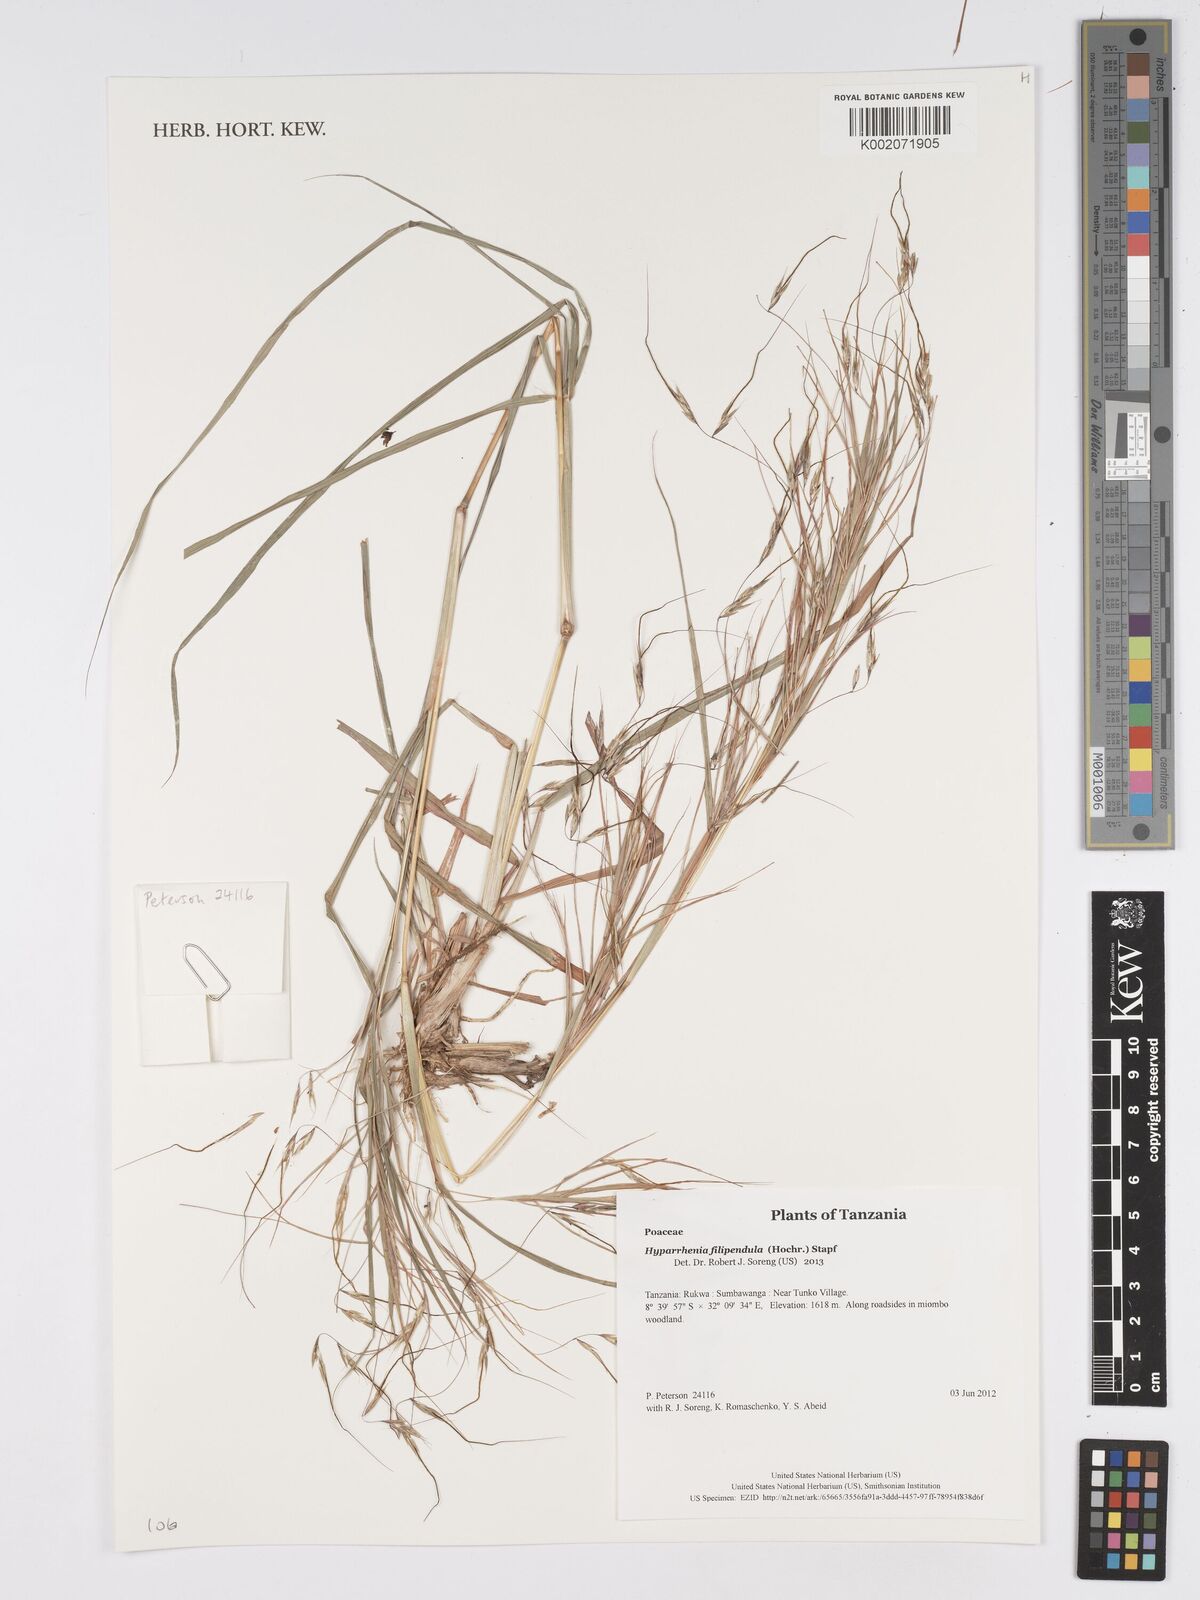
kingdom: Plantae
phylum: Tracheophyta
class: Liliopsida
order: Poales
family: Poaceae
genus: Hyparrhenia
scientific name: Hyparrhenia filipendula
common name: Tambookie grass
